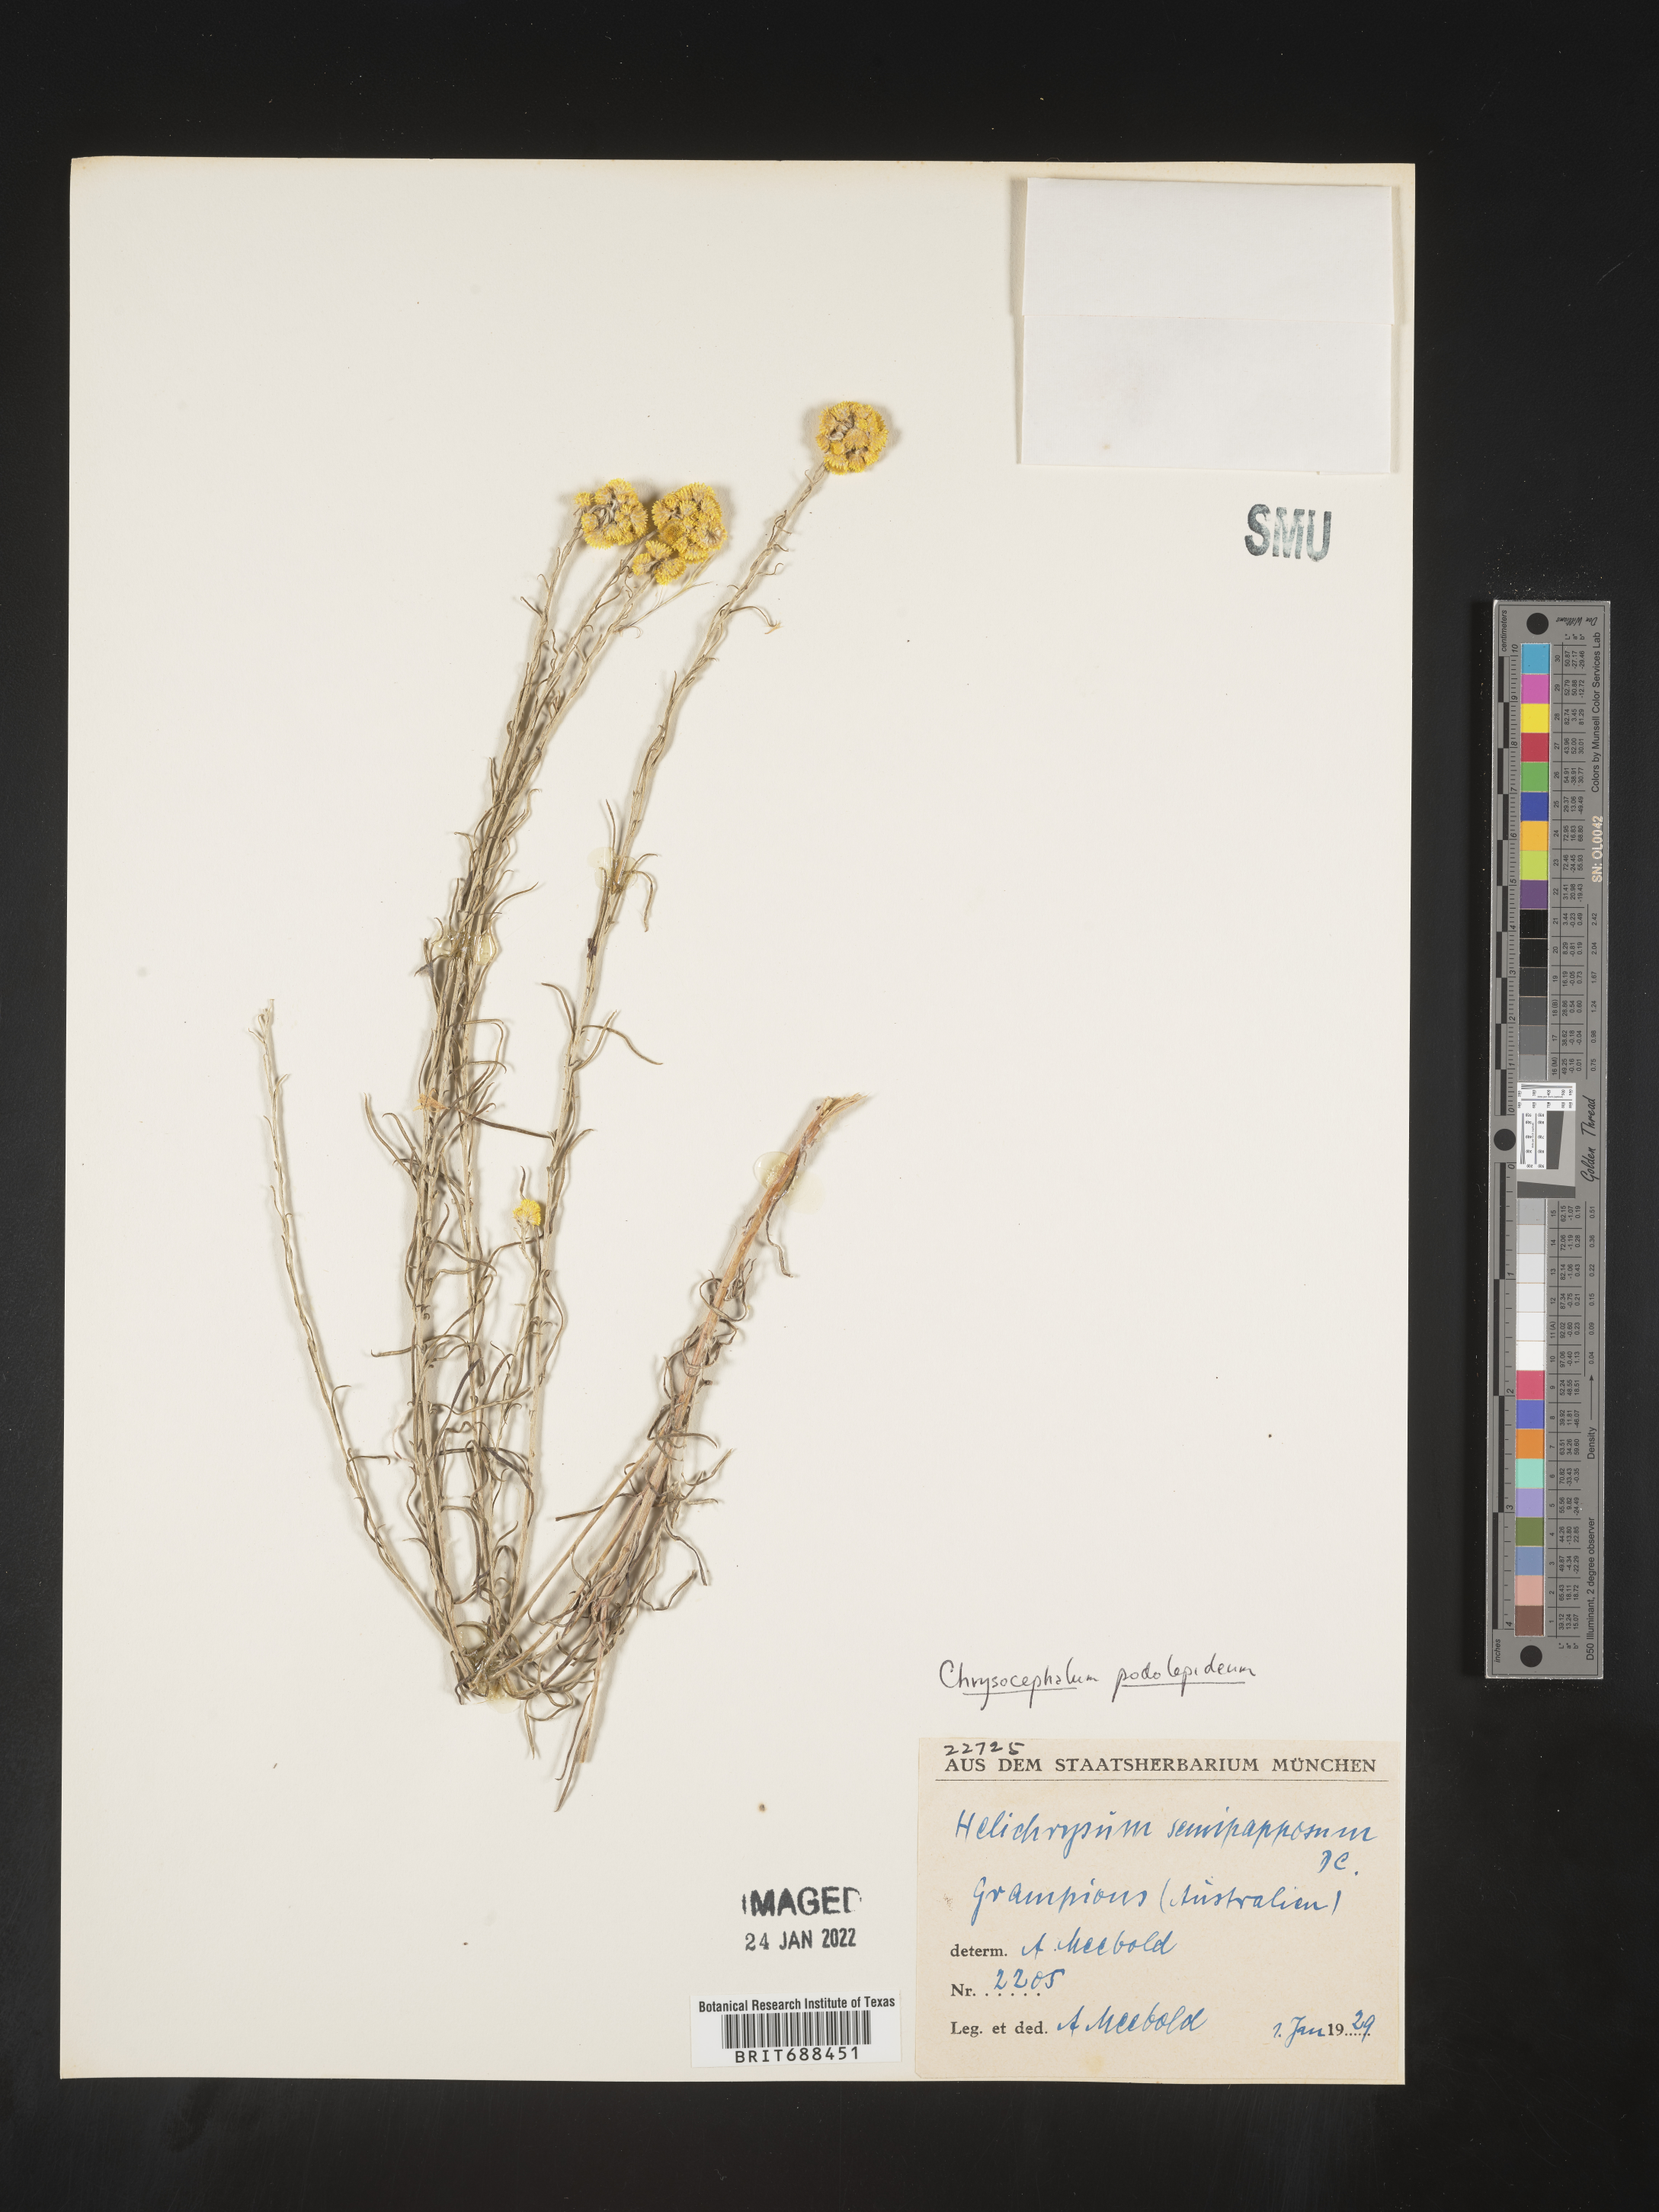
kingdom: Plantae
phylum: Tracheophyta
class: Magnoliopsida
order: Asterales
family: Asteraceae
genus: Chrysocephalum
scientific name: Chrysocephalum
